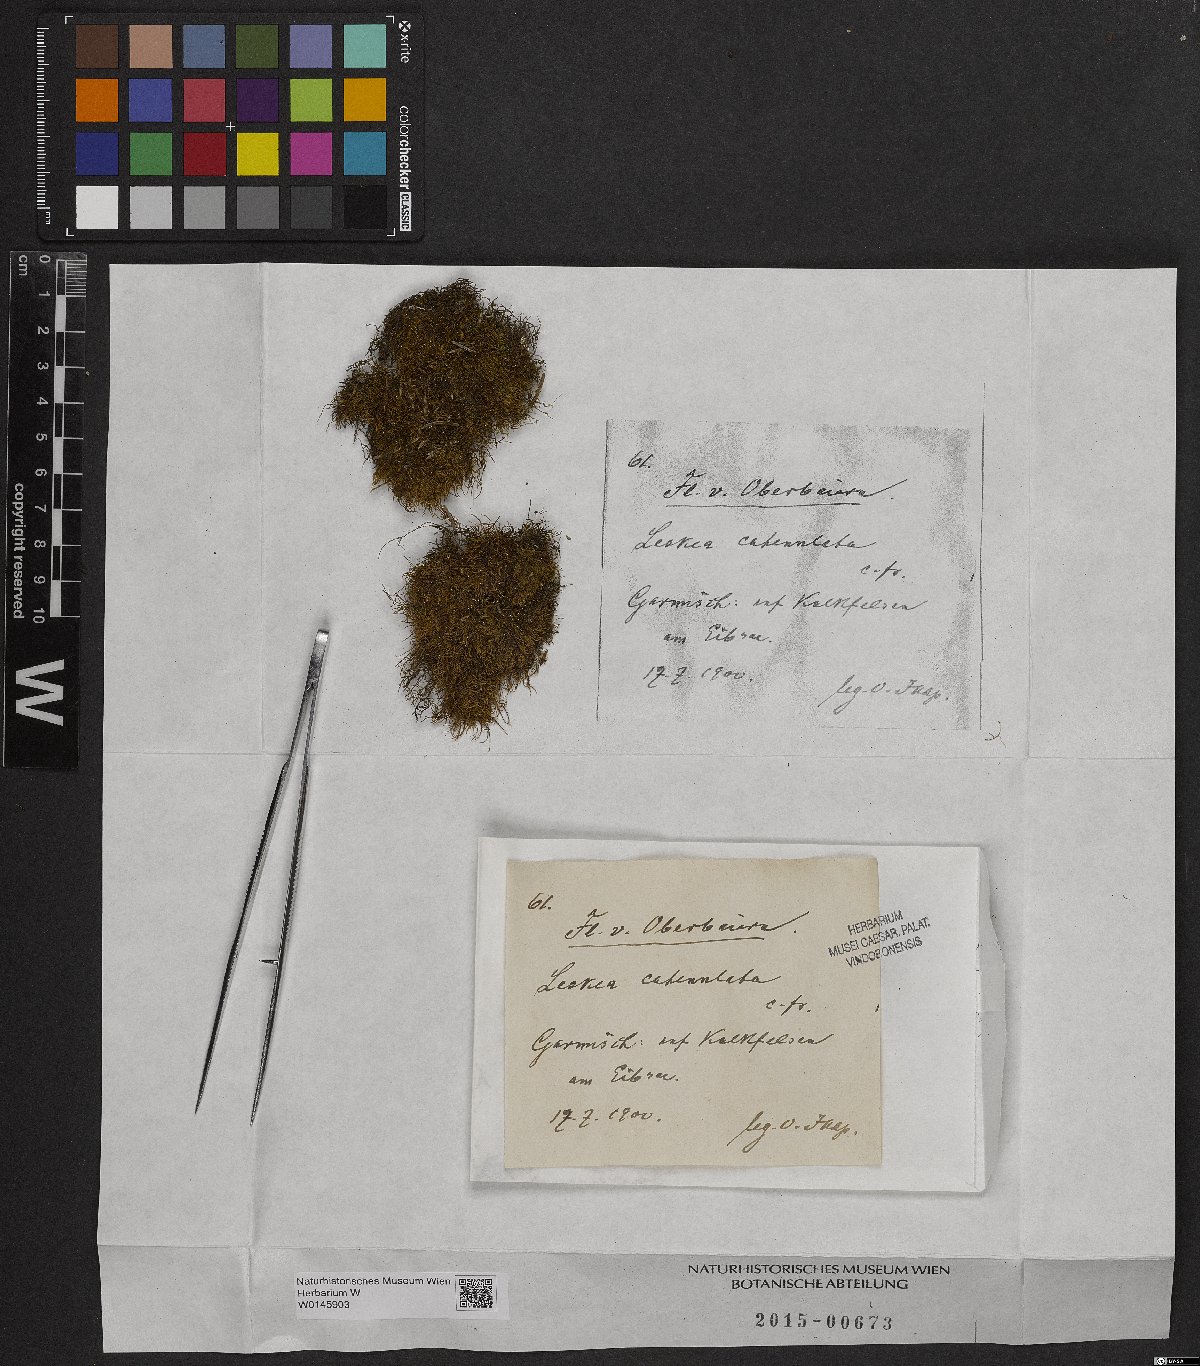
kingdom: Plantae
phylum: Bryophyta
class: Bryopsida
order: Hypnales
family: Pseudoleskeellaceae
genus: Pseudoleskeella
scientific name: Pseudoleskeella catenulata
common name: Chained leskea
